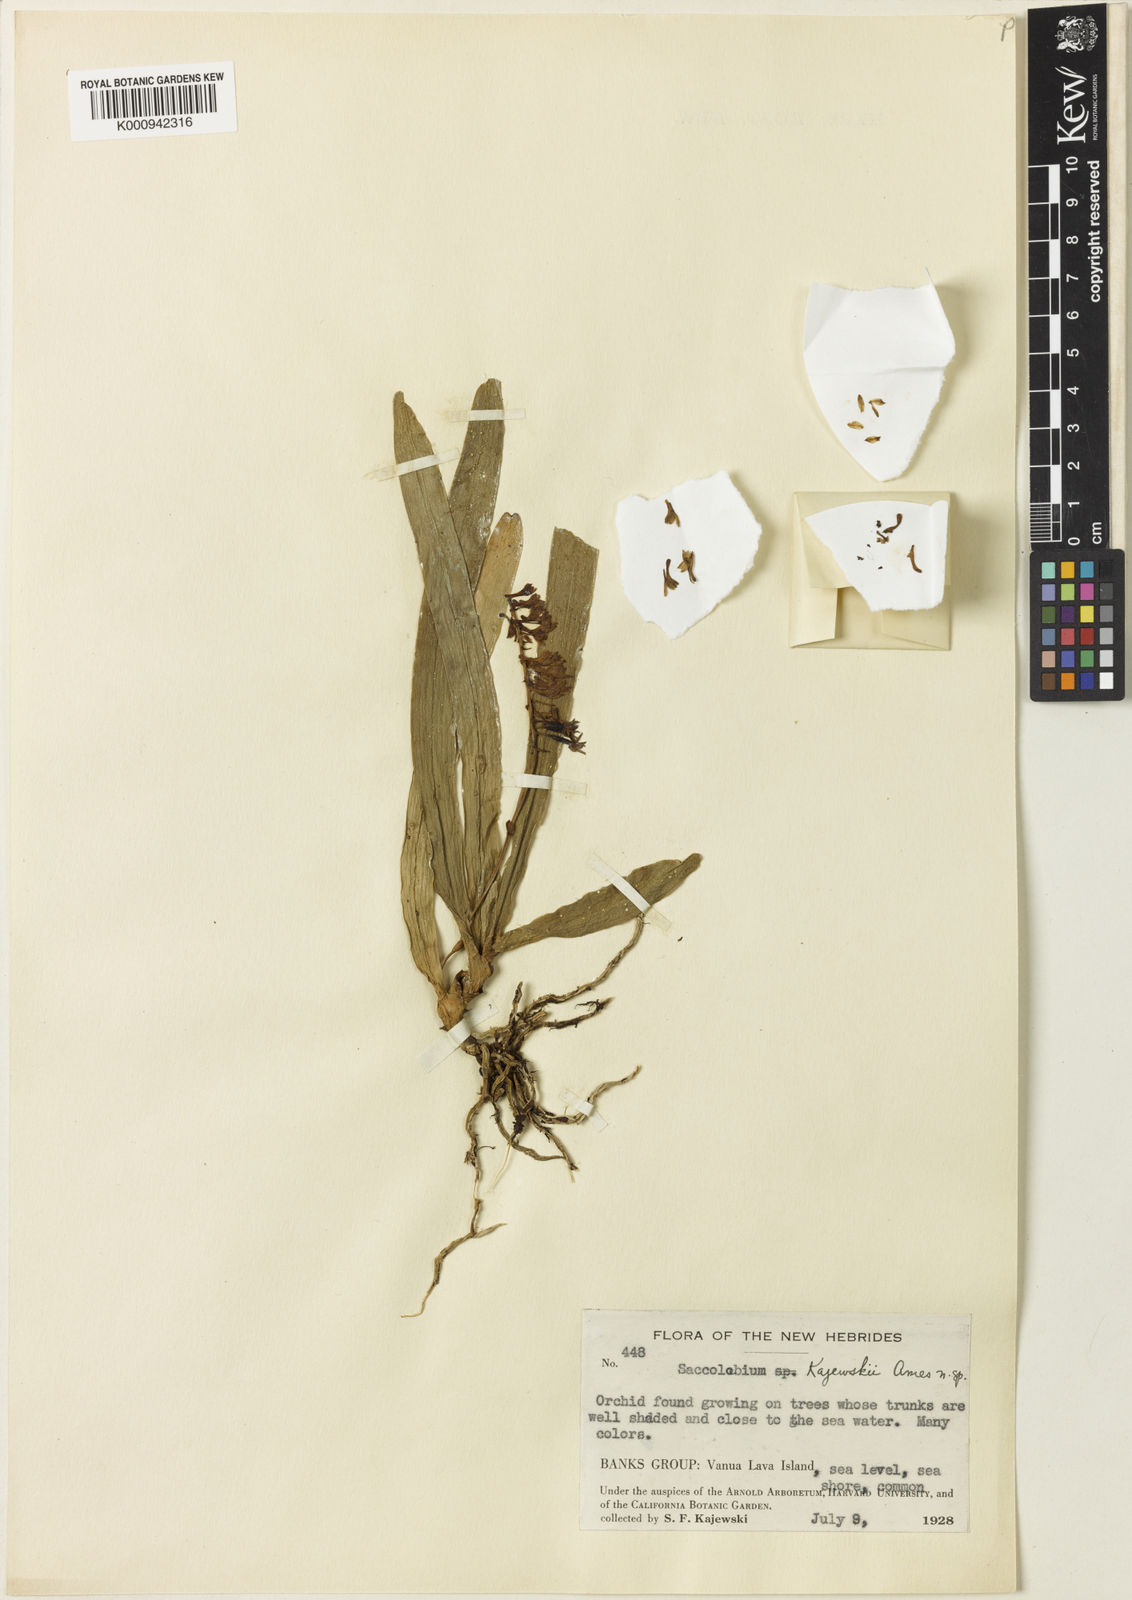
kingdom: Plantae
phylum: Tracheophyta
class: Liliopsida
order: Asparagales
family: Orchidaceae
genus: Robiquetia
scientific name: Robiquetia
